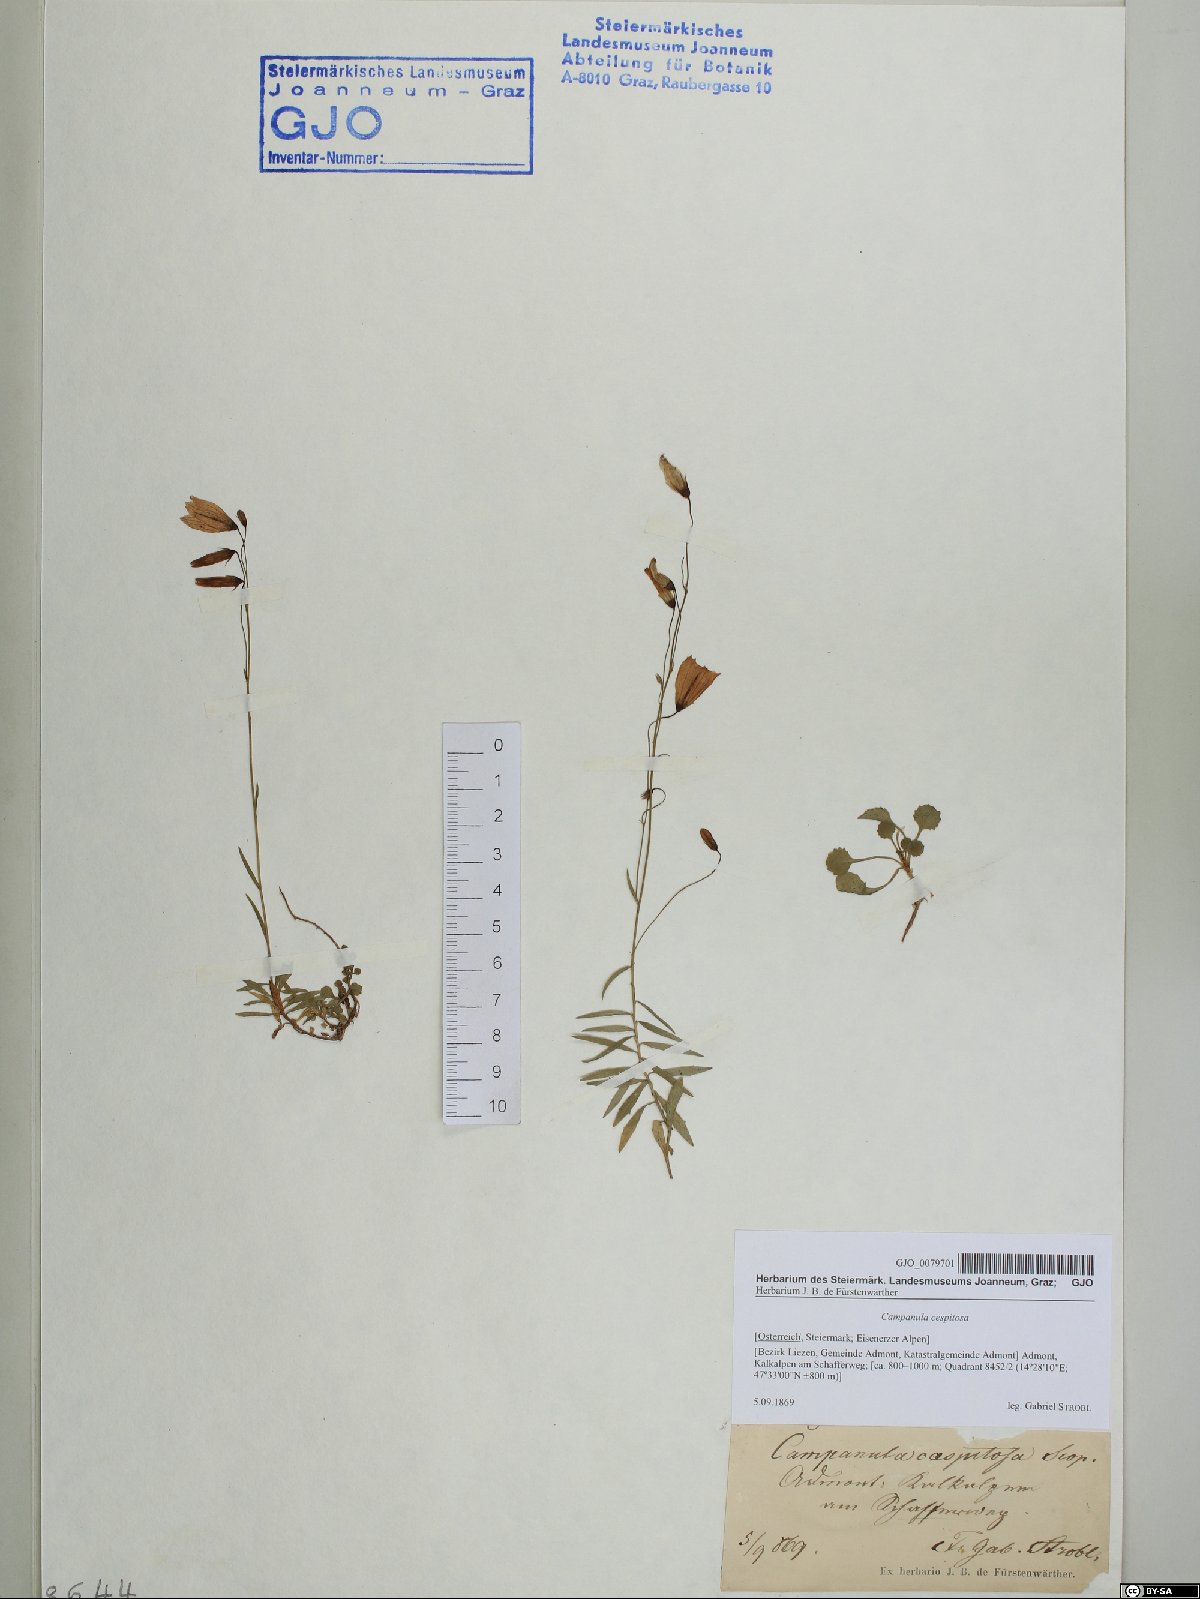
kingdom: Plantae
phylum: Tracheophyta
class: Magnoliopsida
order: Asterales
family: Campanulaceae
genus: Campanula
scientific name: Campanula cespitosa
